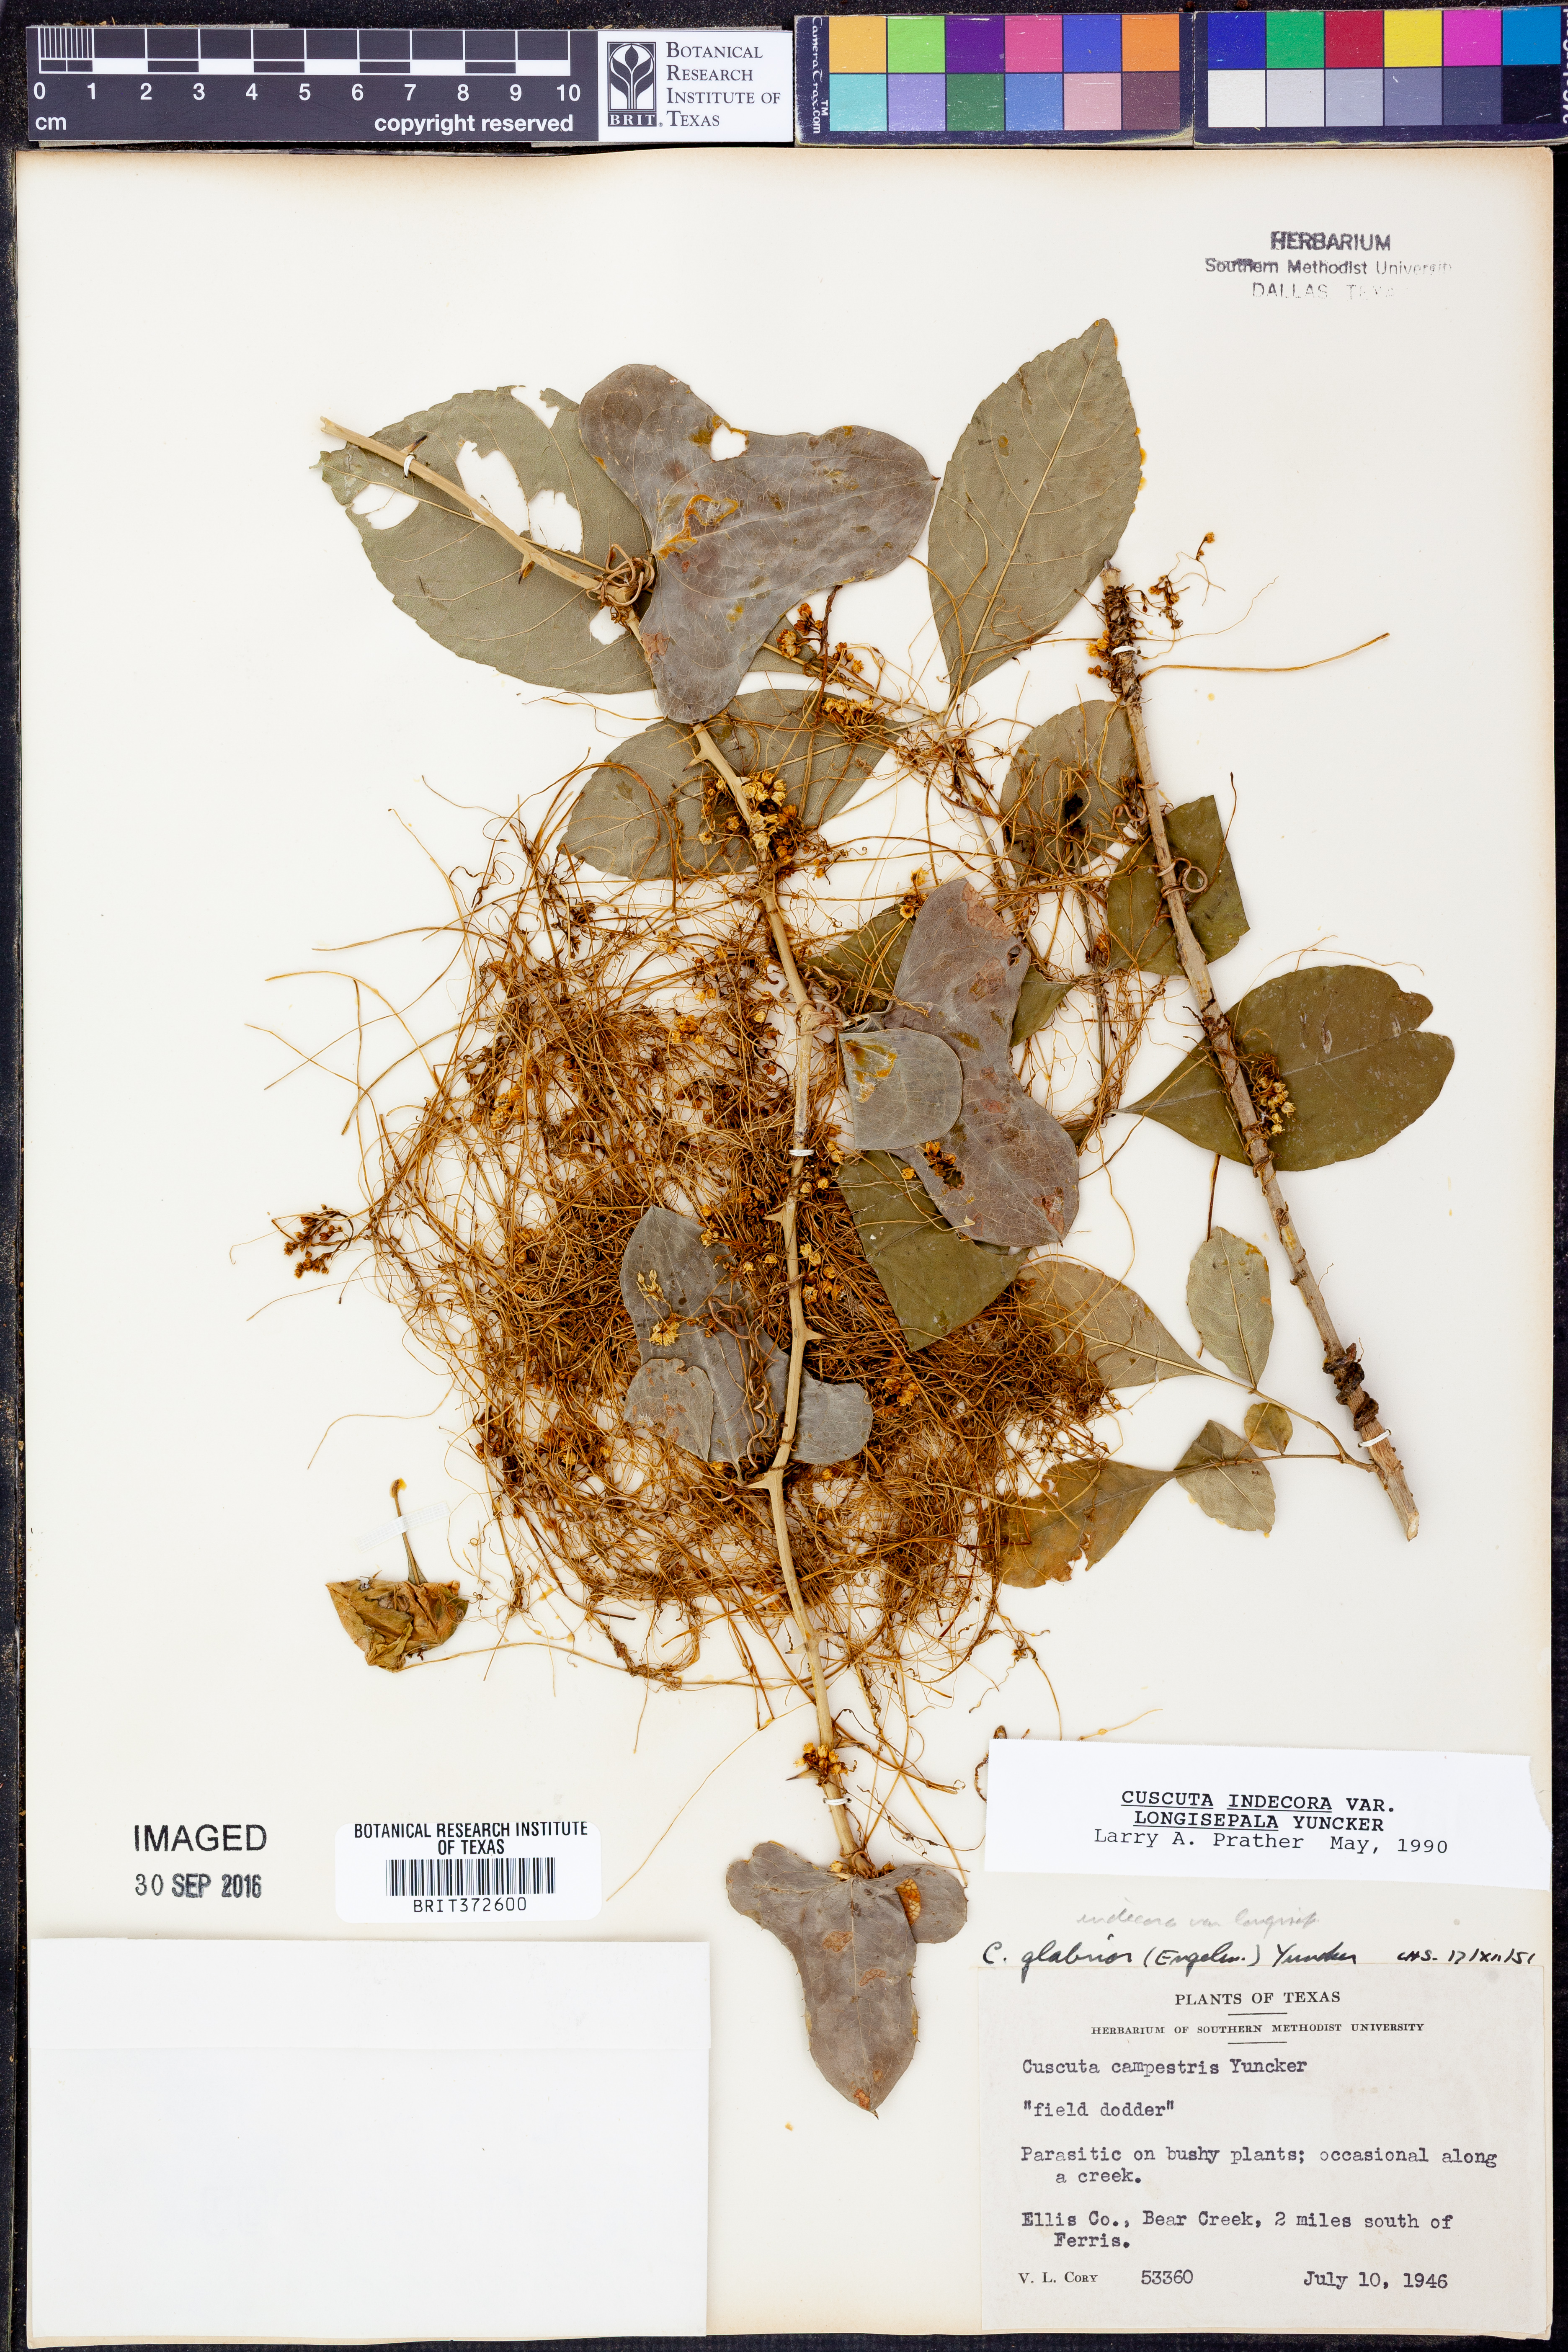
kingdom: Plantae
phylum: Tracheophyta
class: Magnoliopsida
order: Solanales
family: Convolvulaceae
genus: Cuscuta
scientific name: Cuscuta indecora
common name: Large-seed dodder
